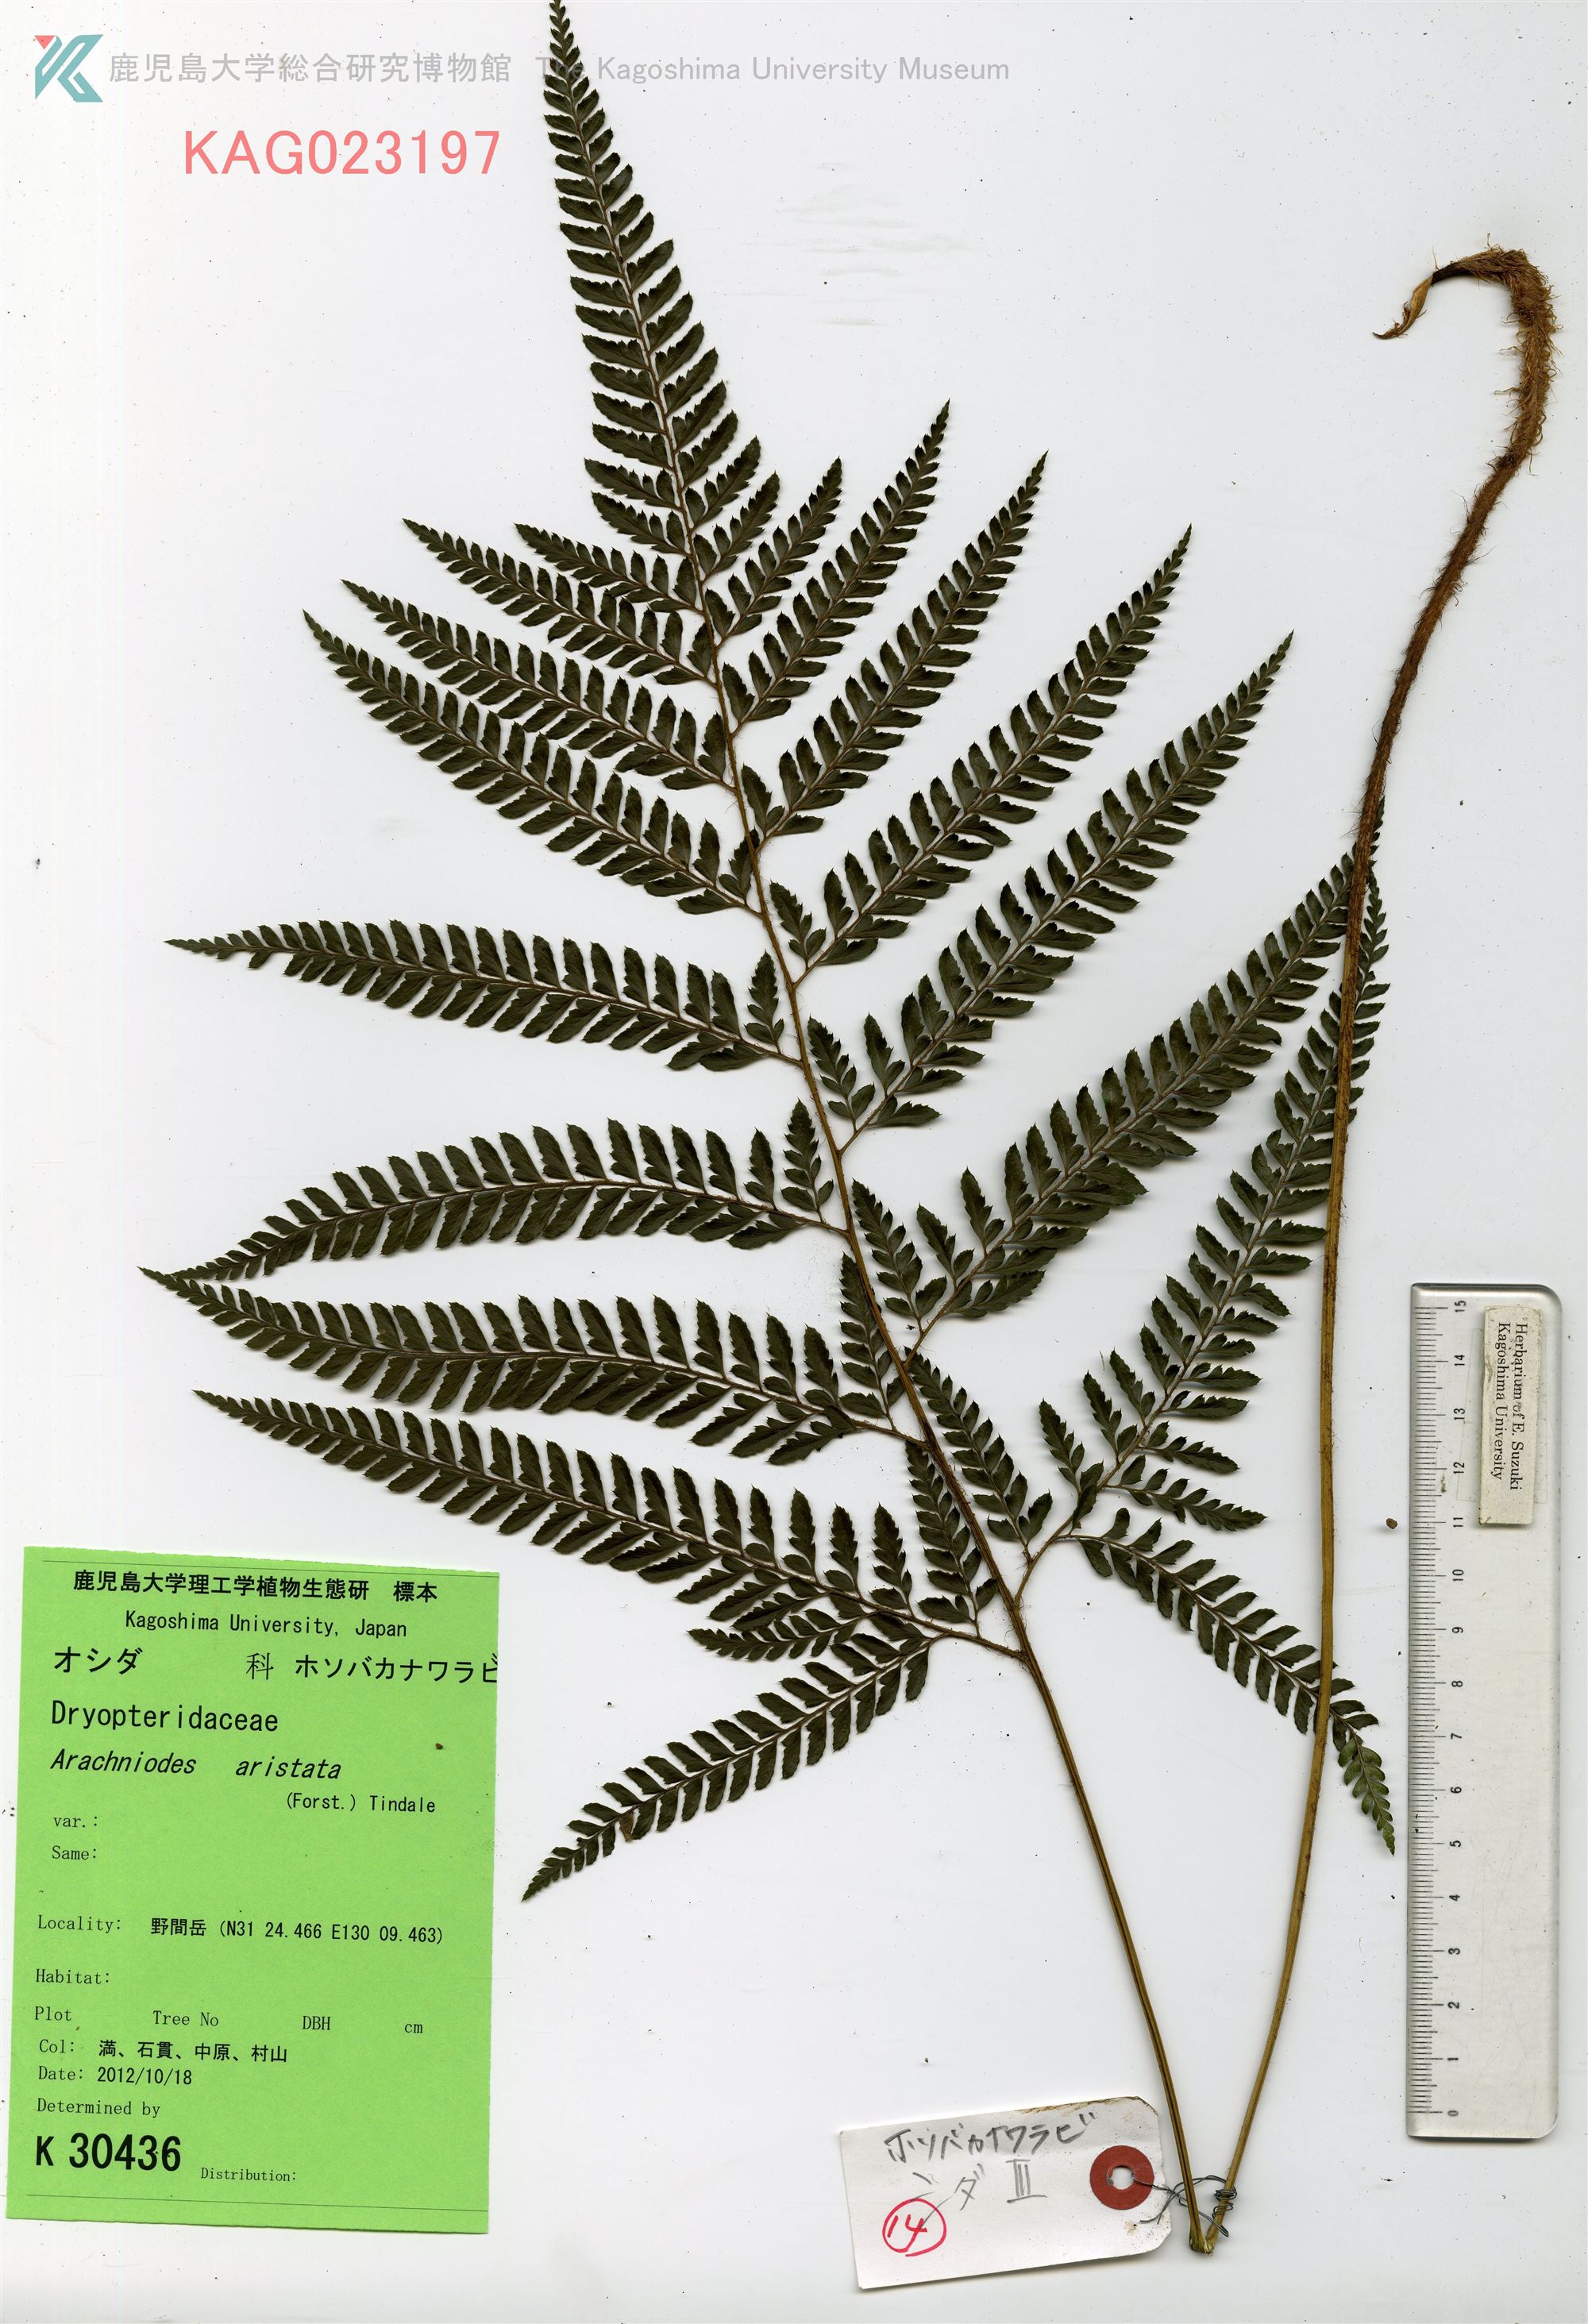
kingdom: Plantae
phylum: Tracheophyta
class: Polypodiopsida
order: Polypodiales
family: Dryopteridaceae
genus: Arachniodes
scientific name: Arachniodes aristata
